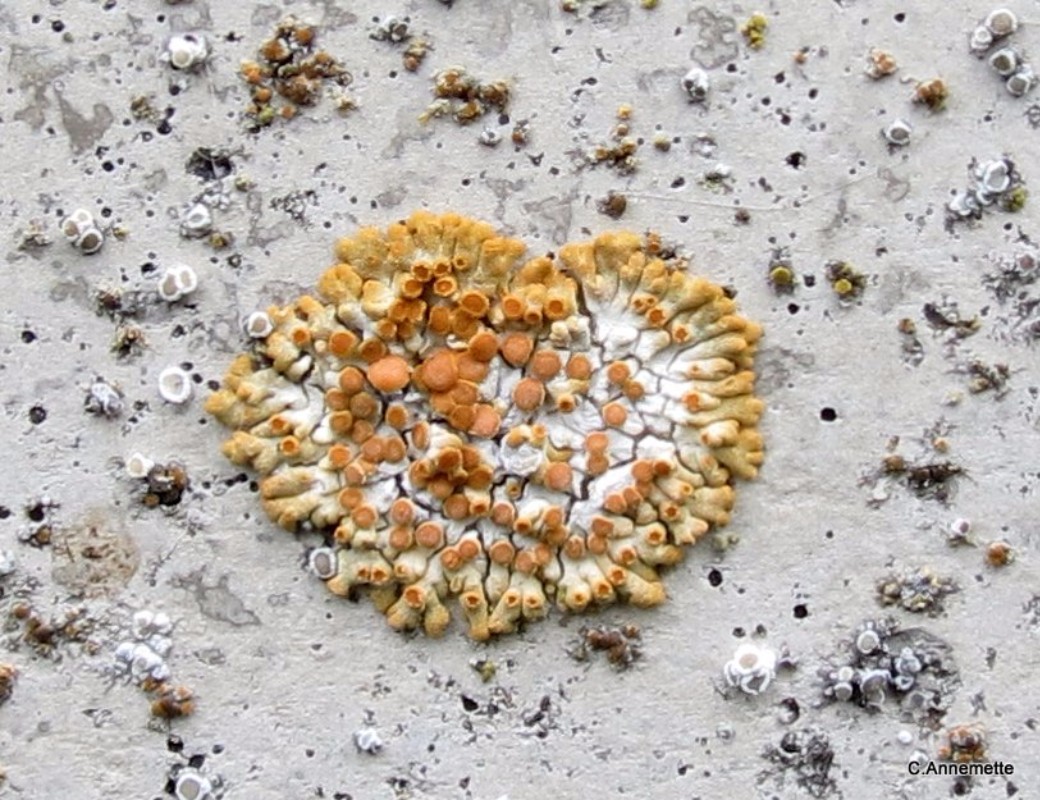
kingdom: Fungi
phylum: Ascomycota
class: Lecanoromycetes
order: Teloschistales
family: Teloschistaceae
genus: Calogaya
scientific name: Calogaya pusilla
